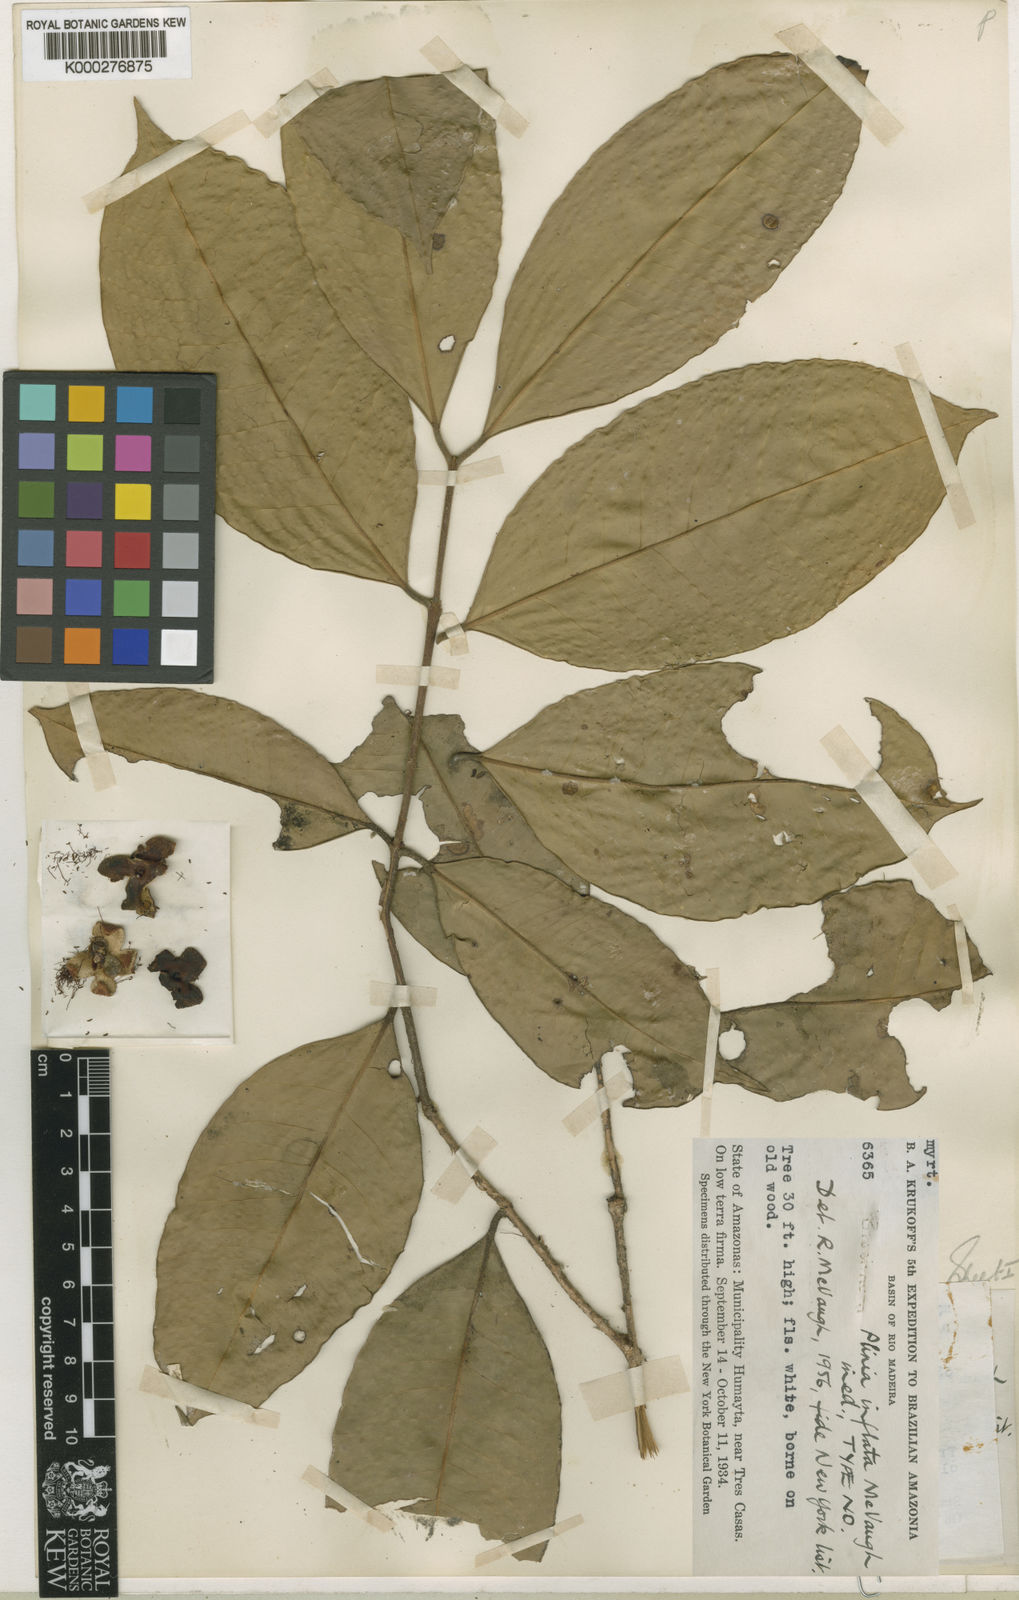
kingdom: Plantae
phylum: Tracheophyta
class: Magnoliopsida
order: Myrtales
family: Myrtaceae
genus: Plinia
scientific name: Plinia inflata
